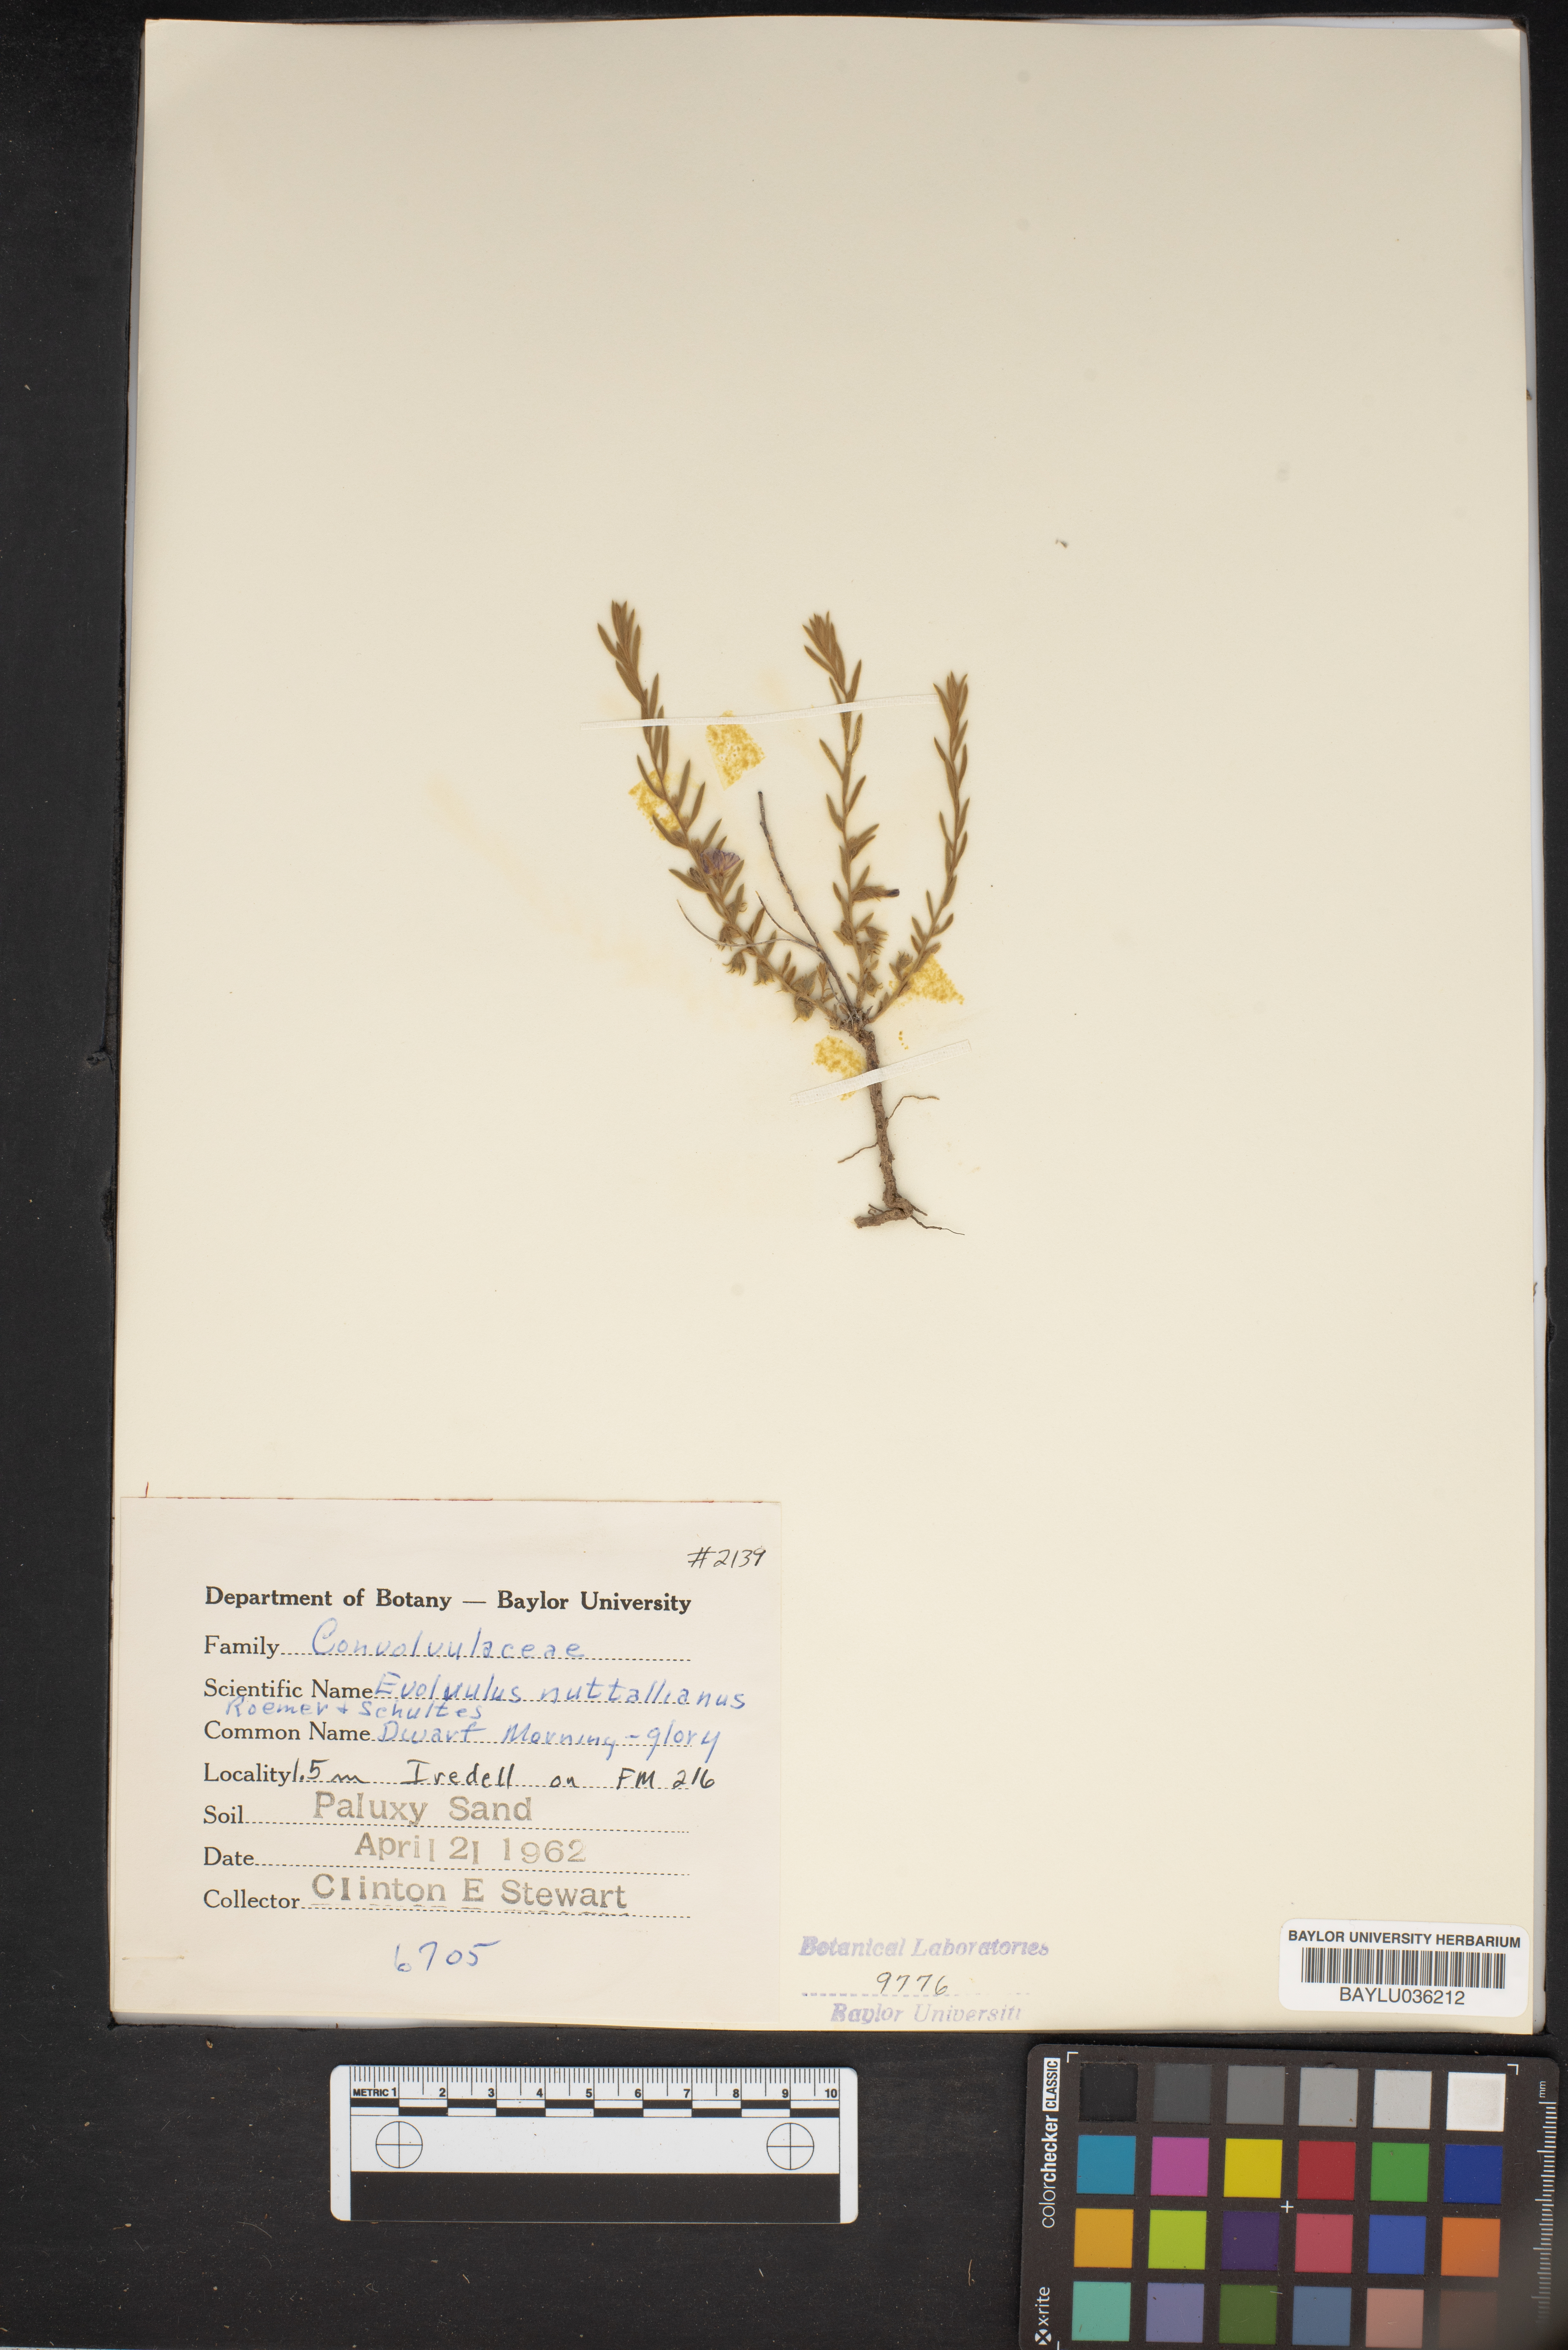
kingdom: Plantae
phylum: Tracheophyta
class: Magnoliopsida
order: Solanales
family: Convolvulaceae
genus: Evolvulus
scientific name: Evolvulus nuttallianus
